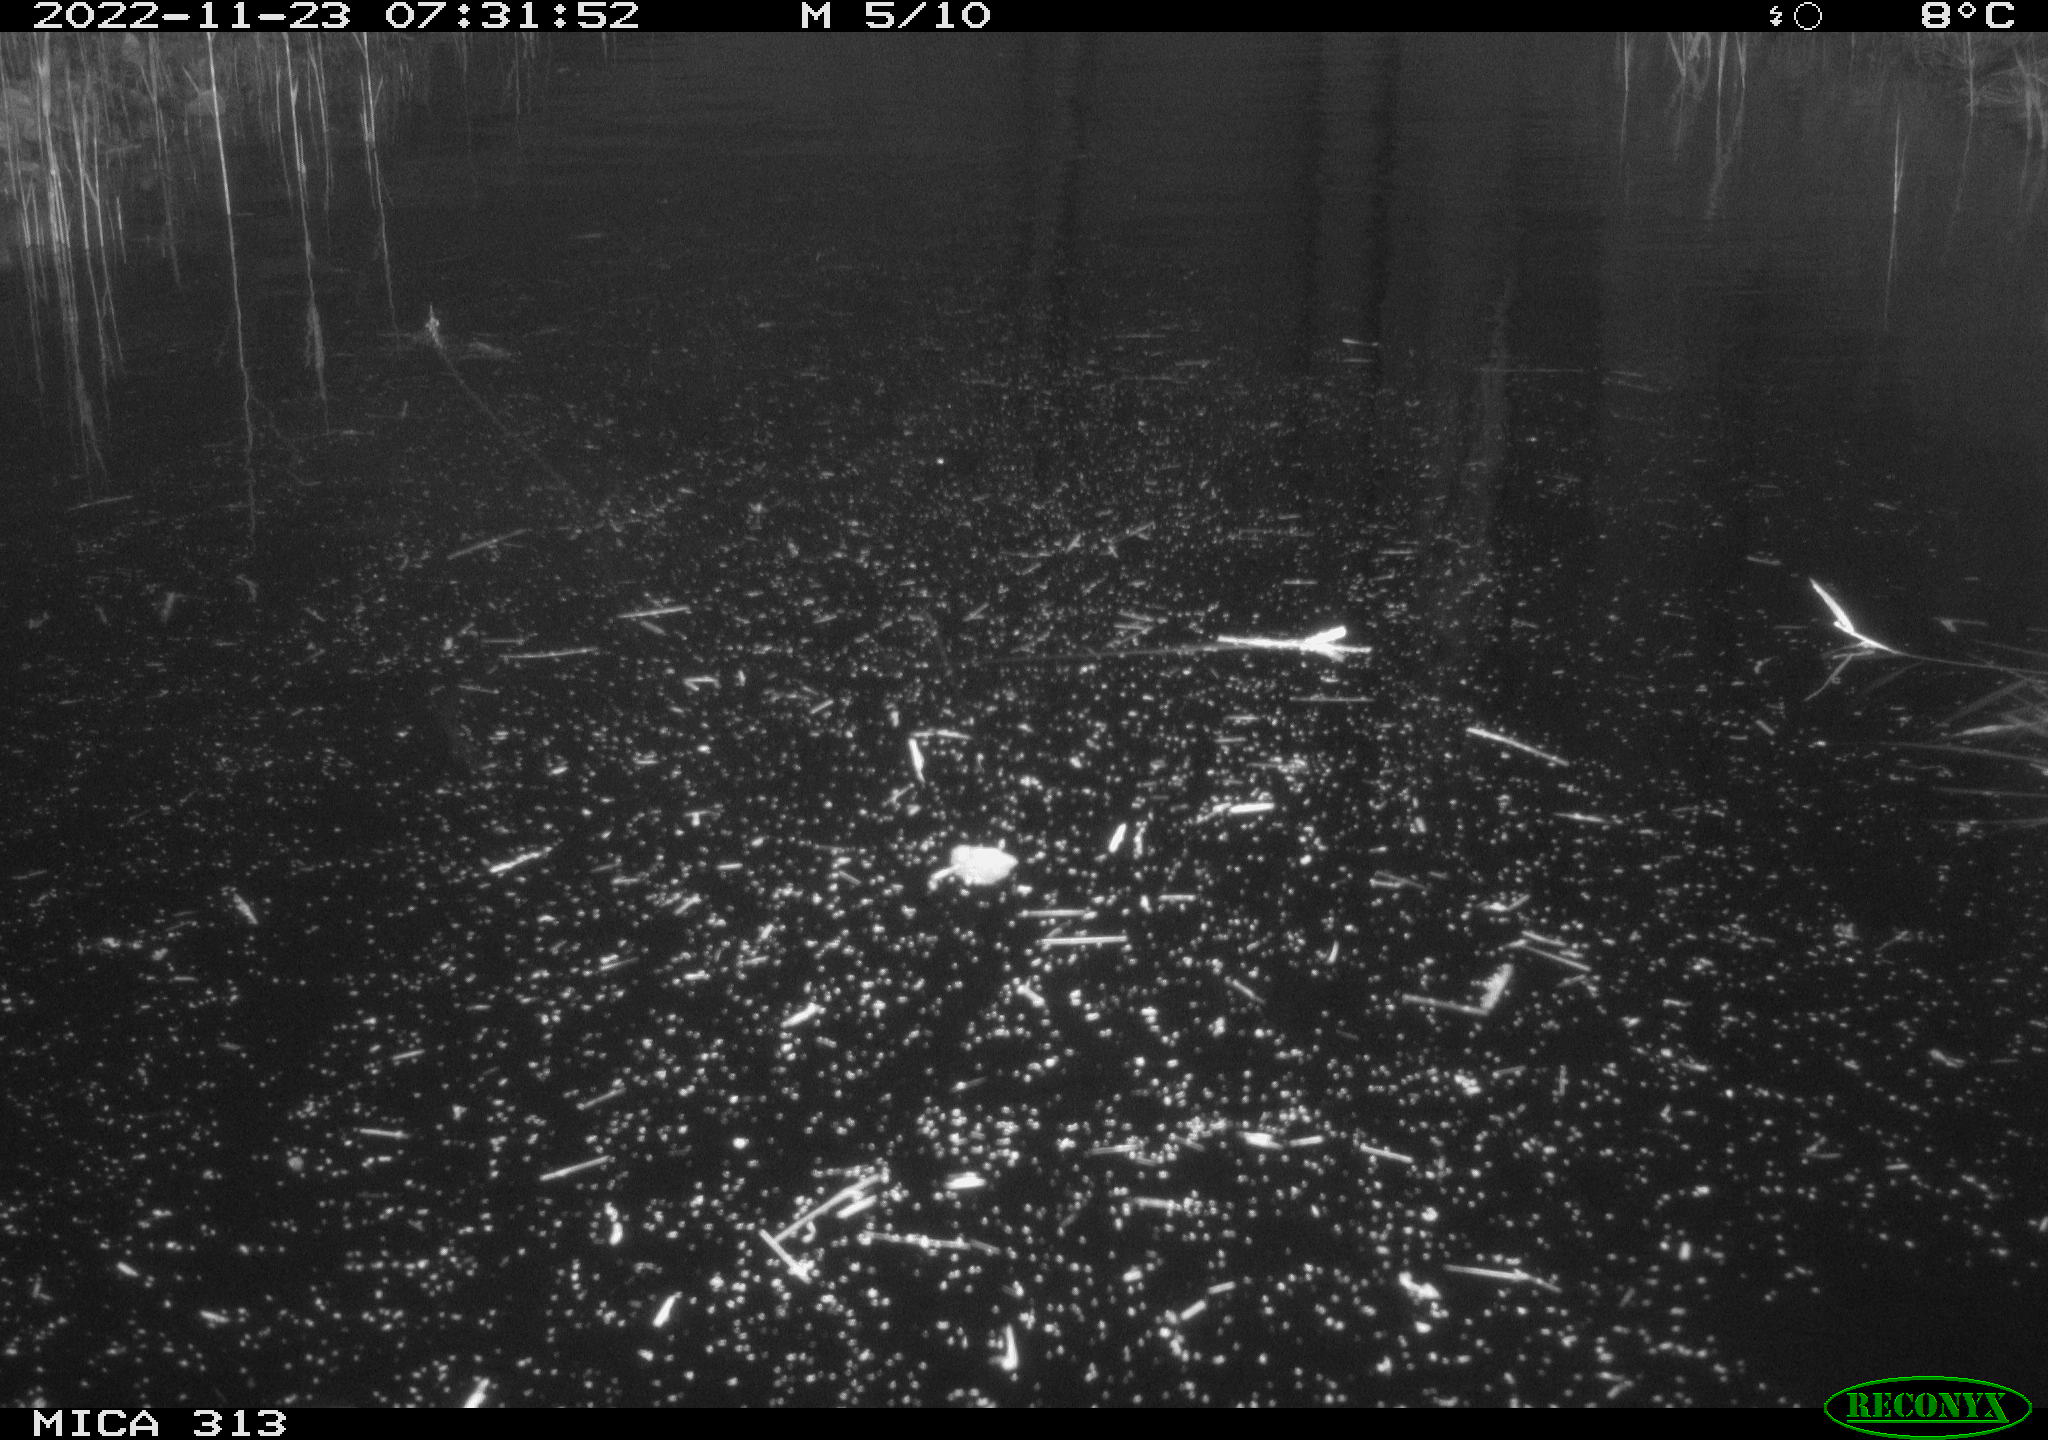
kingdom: Animalia
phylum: Chordata
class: Aves
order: Gruiformes
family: Rallidae
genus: Gallinula
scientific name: Gallinula chloropus
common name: Common moorhen
